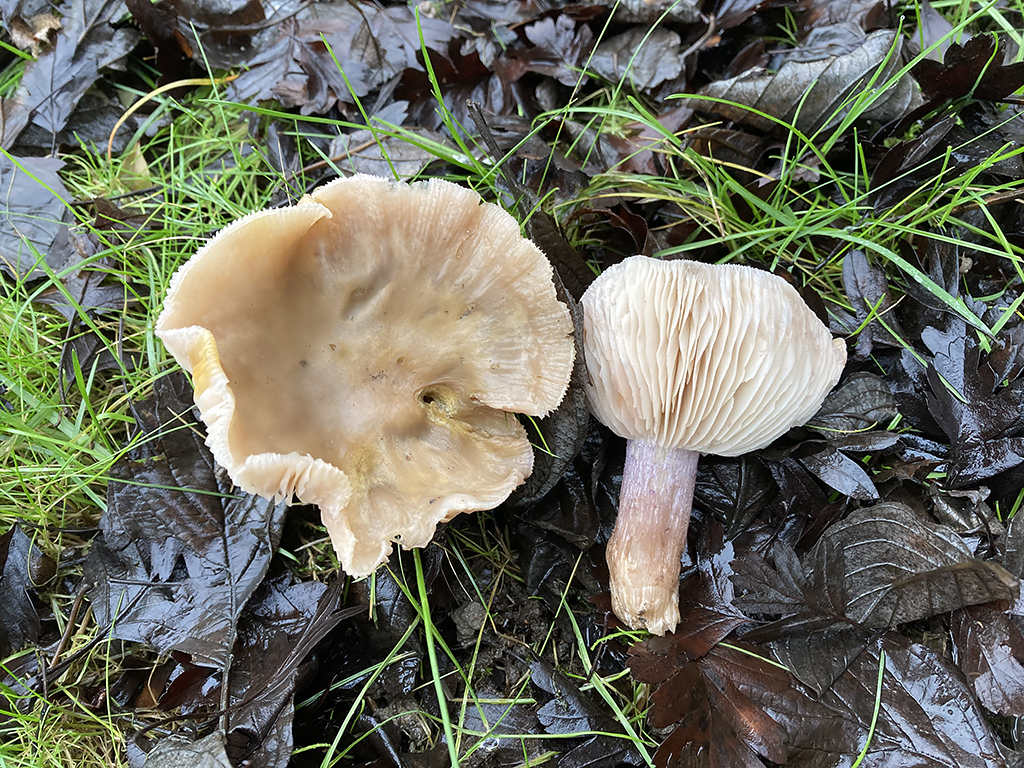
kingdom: Fungi
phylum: Basidiomycota
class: Agaricomycetes
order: Agaricales
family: Tricholomataceae
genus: Lepista
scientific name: Lepista personata
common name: bleg hekseringshat
